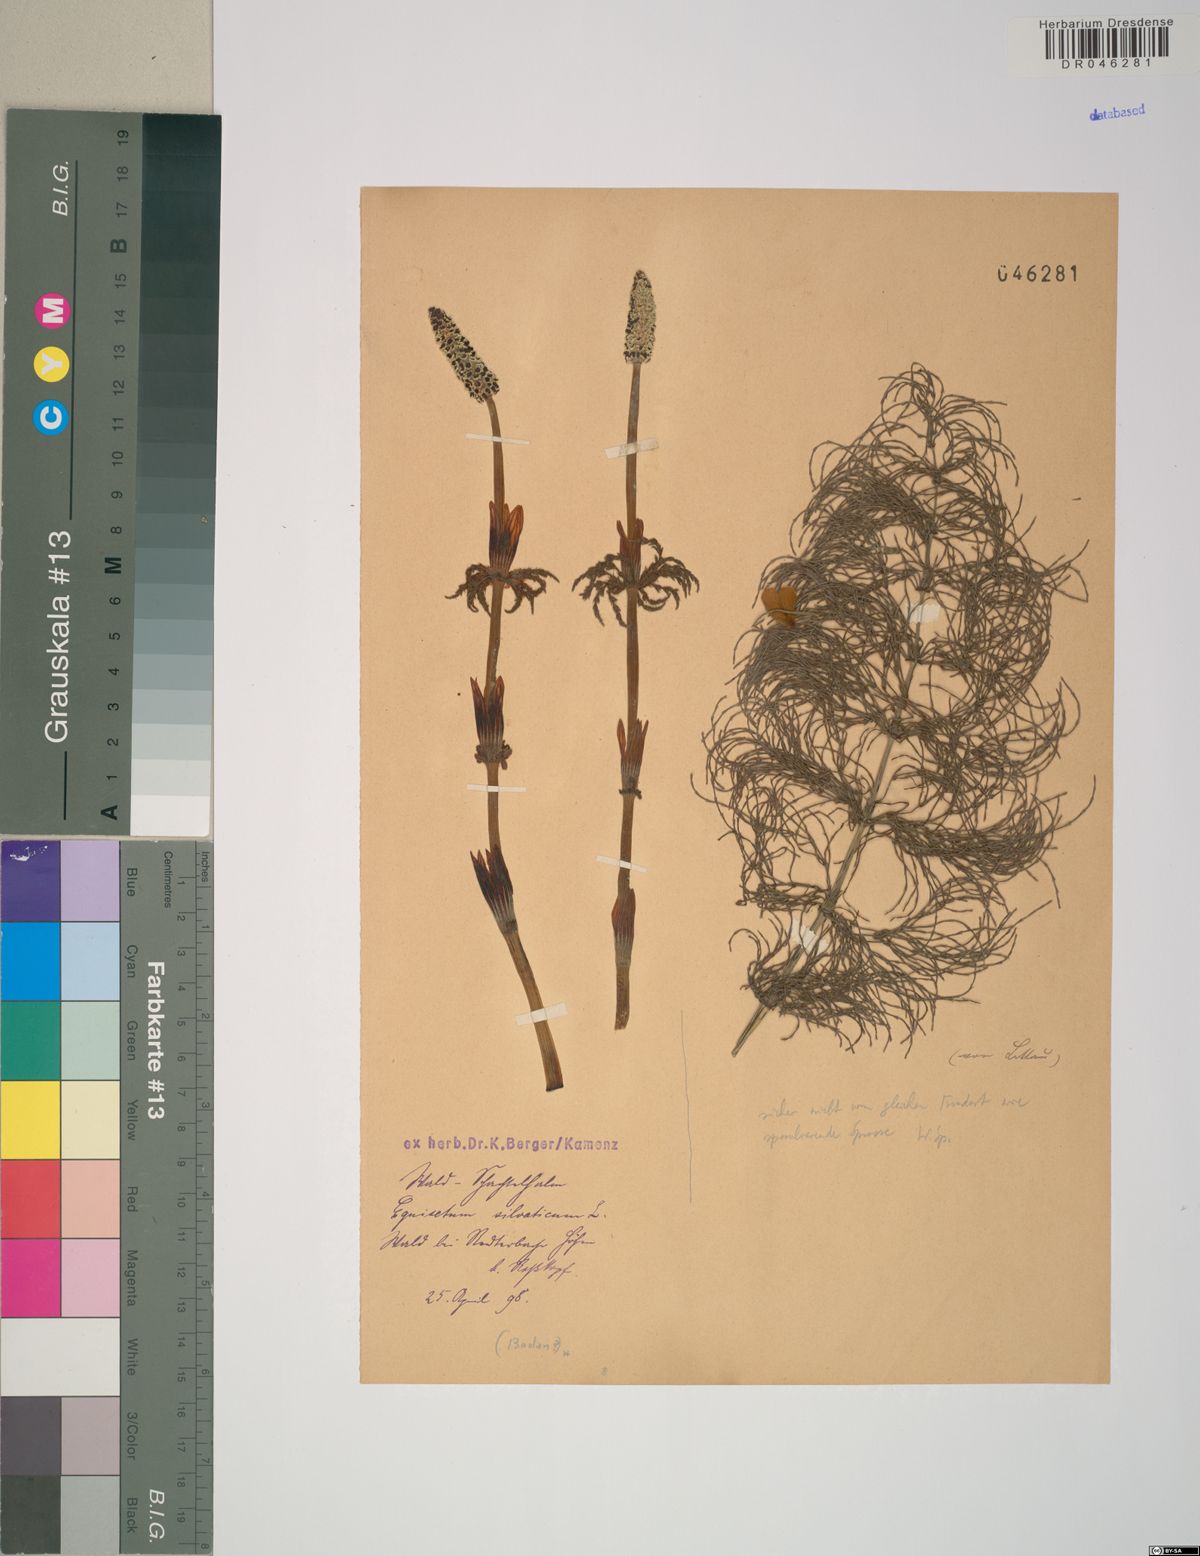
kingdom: Plantae
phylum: Tracheophyta
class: Polypodiopsida
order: Equisetales
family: Equisetaceae
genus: Equisetum
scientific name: Equisetum sylvaticum
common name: Wood horsetail
